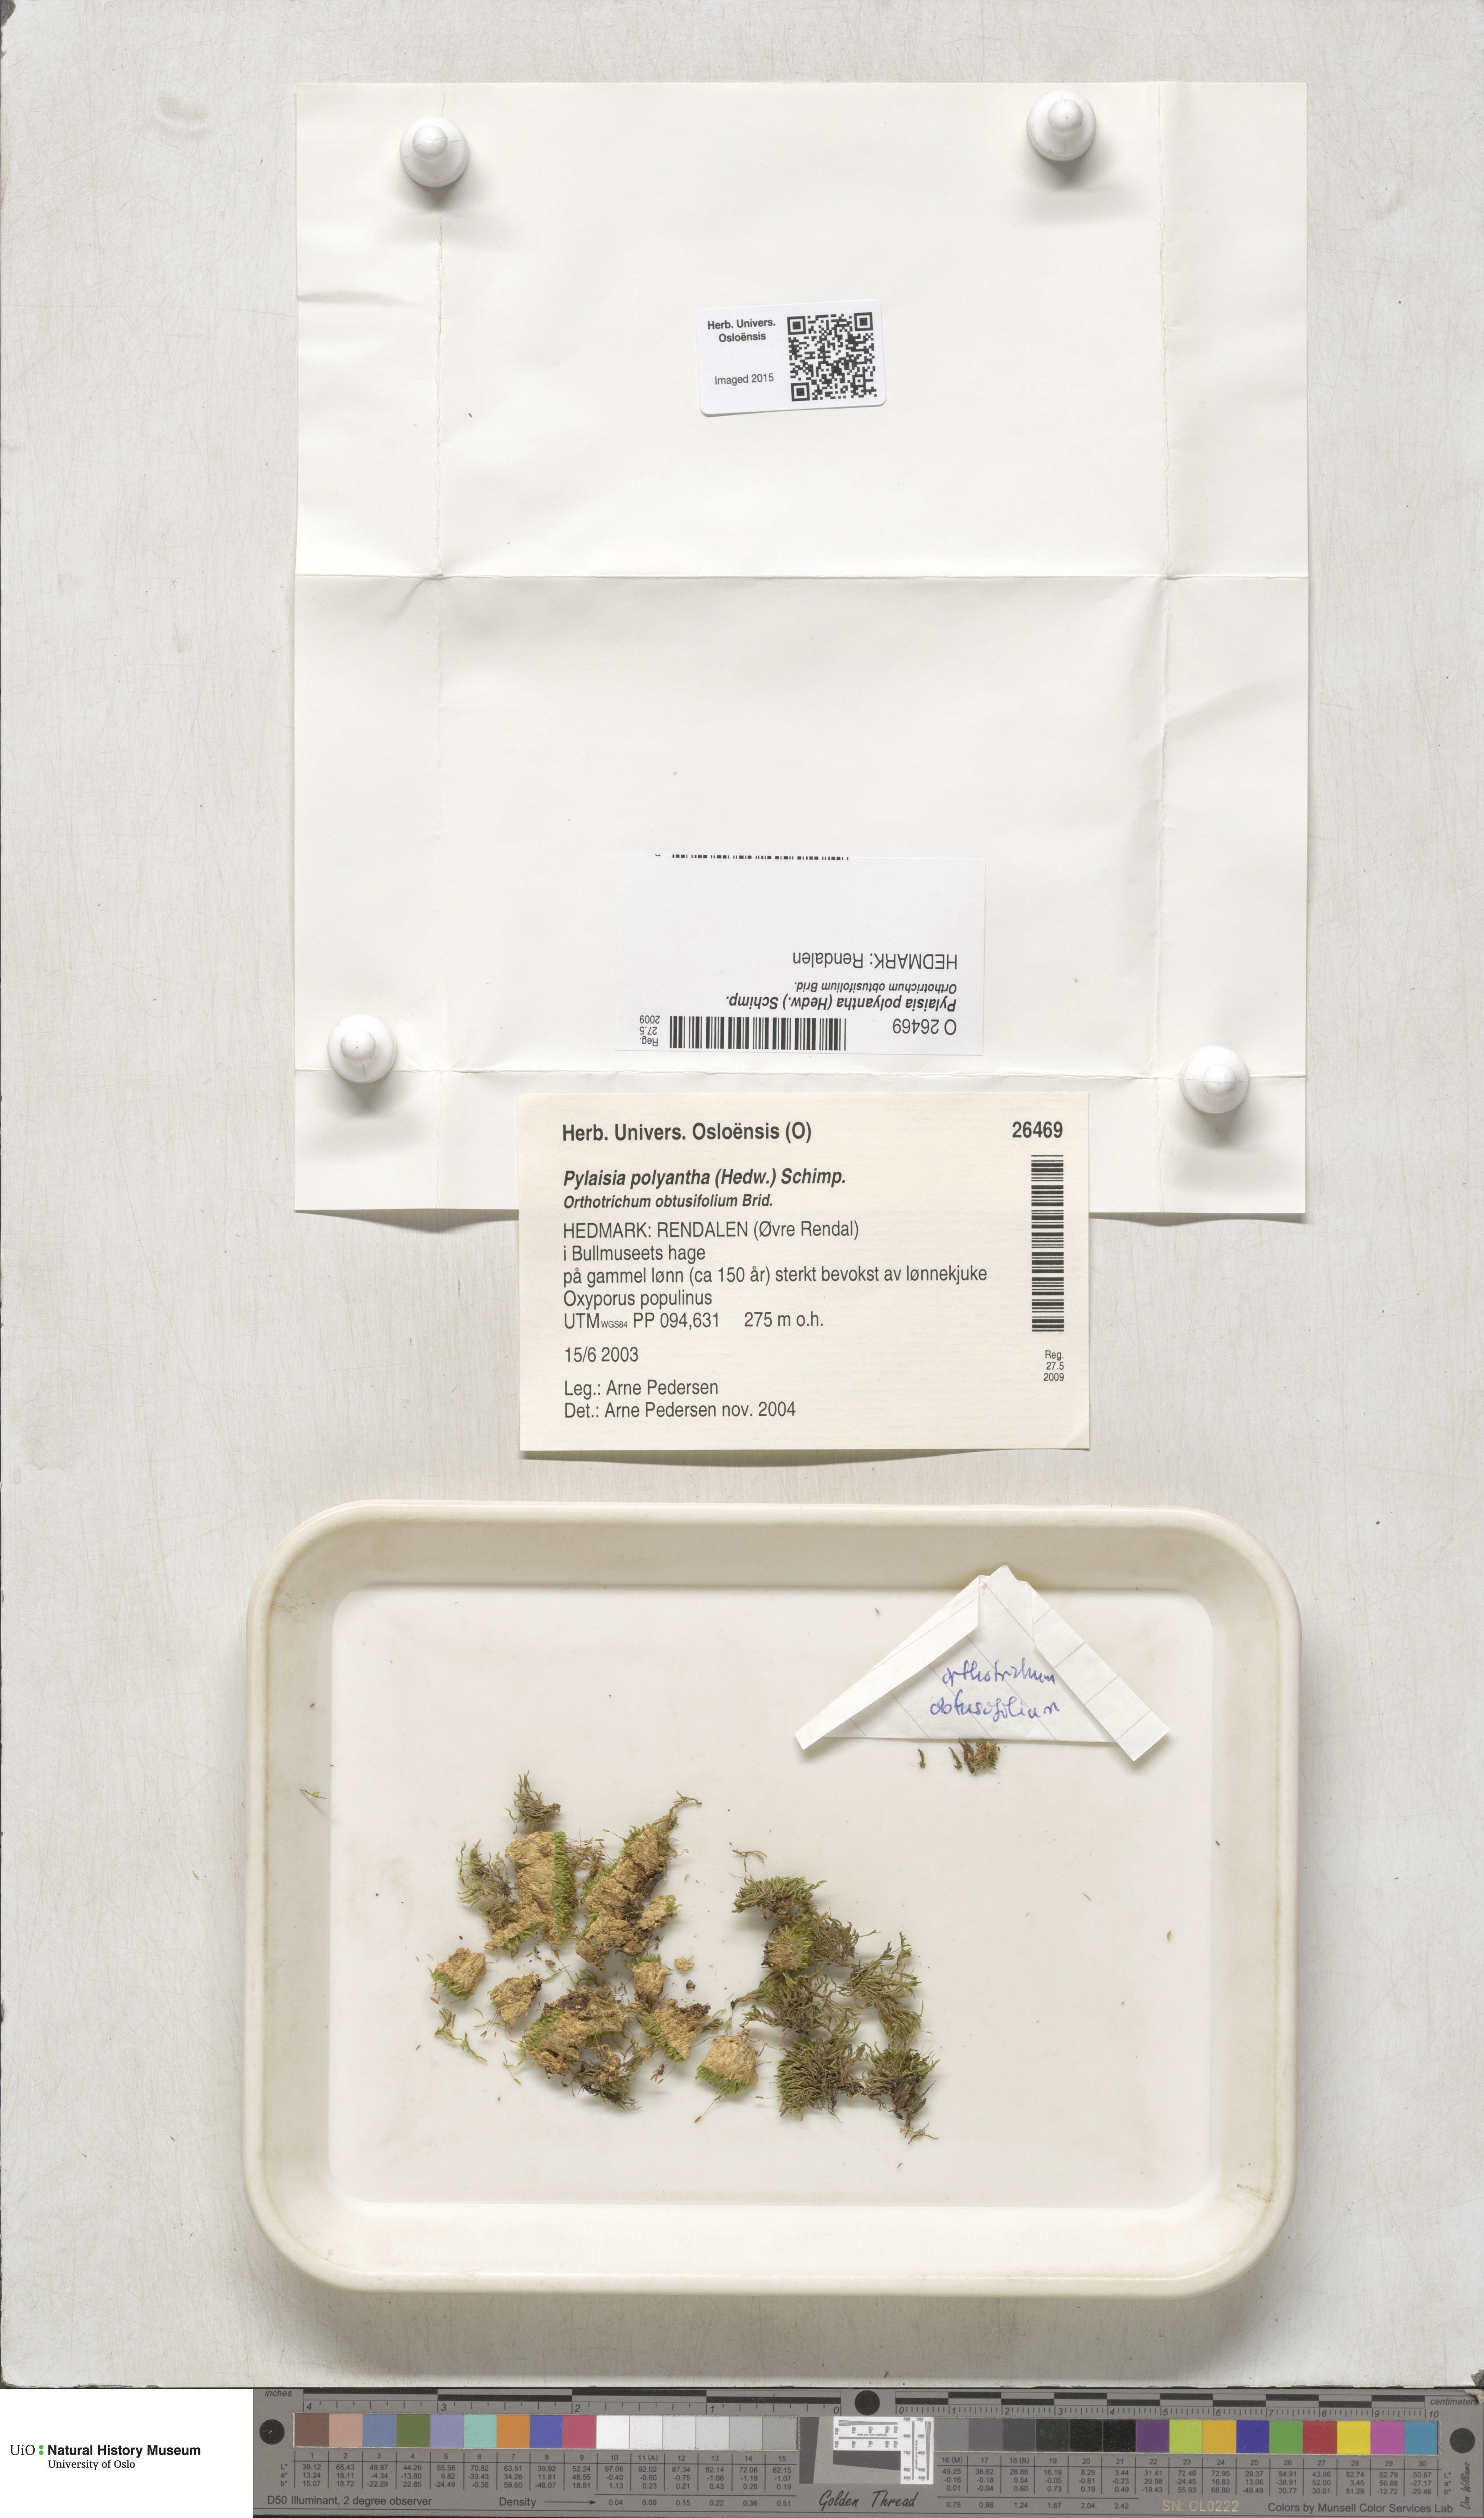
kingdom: Plantae
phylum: Bryophyta
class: Bryopsida
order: Hypnales
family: Pylaisiaceae
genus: Pylaisia
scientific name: Pylaisia polyantha
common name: Many-flowered leskea
